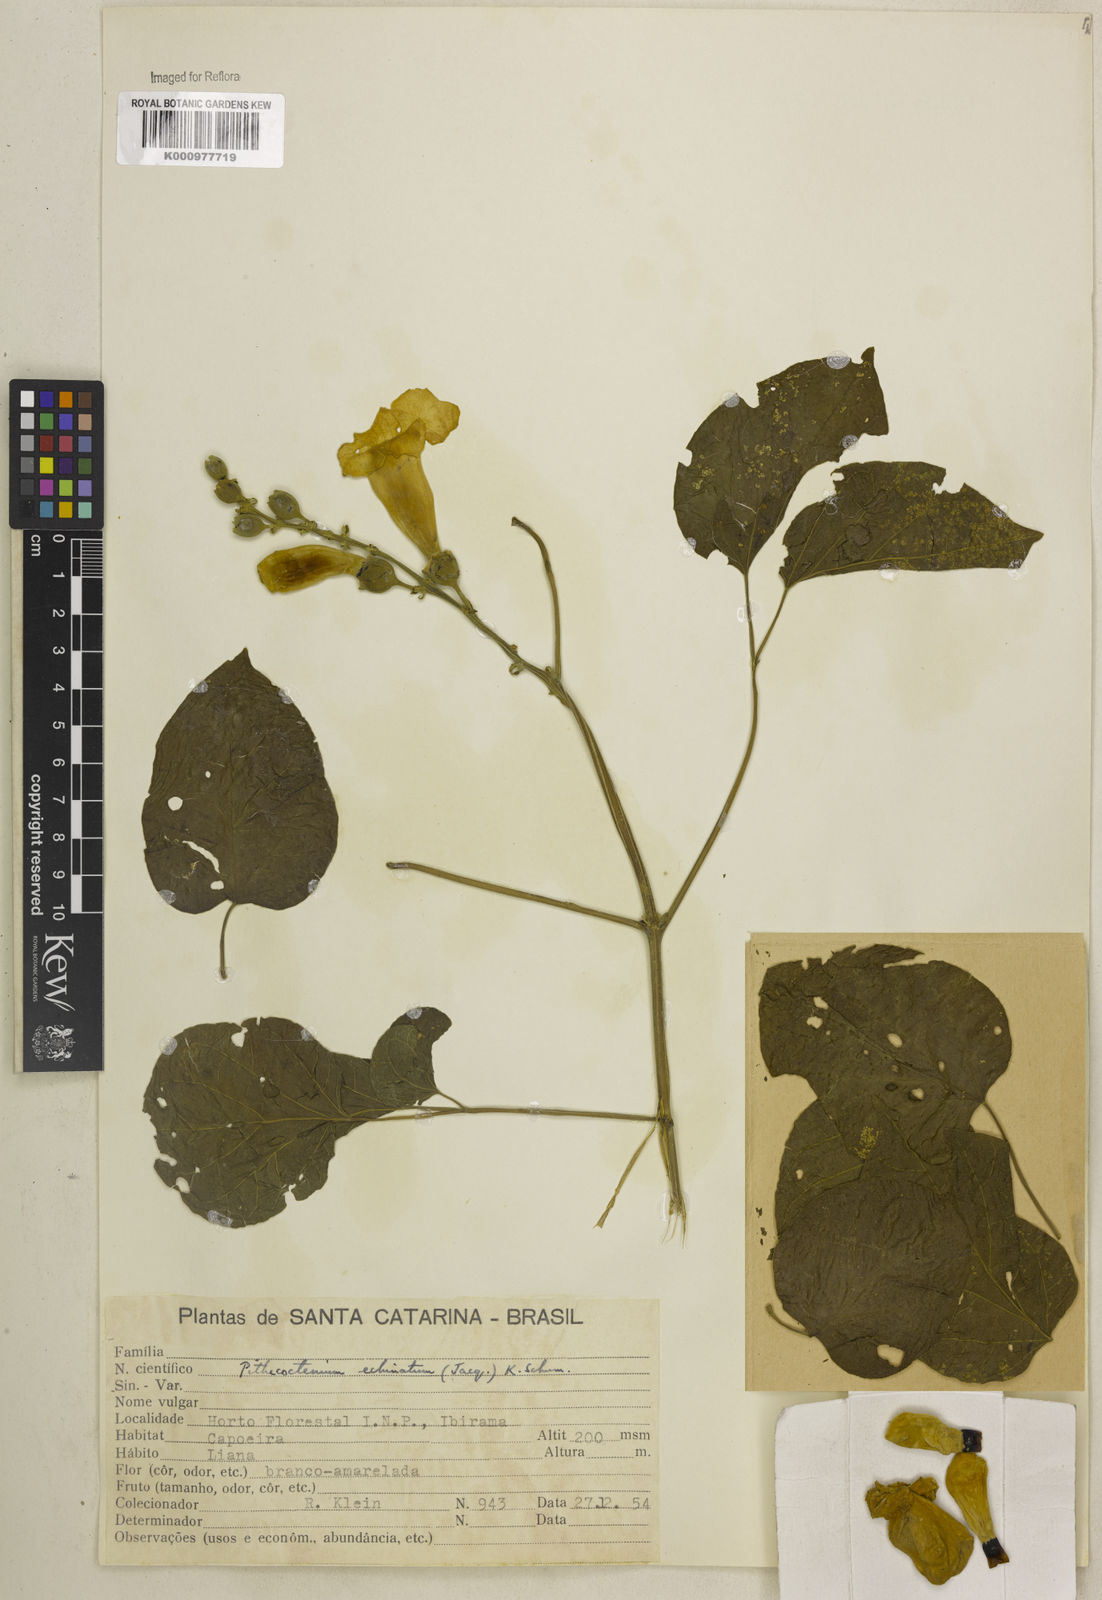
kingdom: Plantae
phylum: Tracheophyta
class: Magnoliopsida
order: Lamiales
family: Bignoniaceae
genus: Amphilophium
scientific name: Amphilophium crucigerum
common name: Monkey comb
